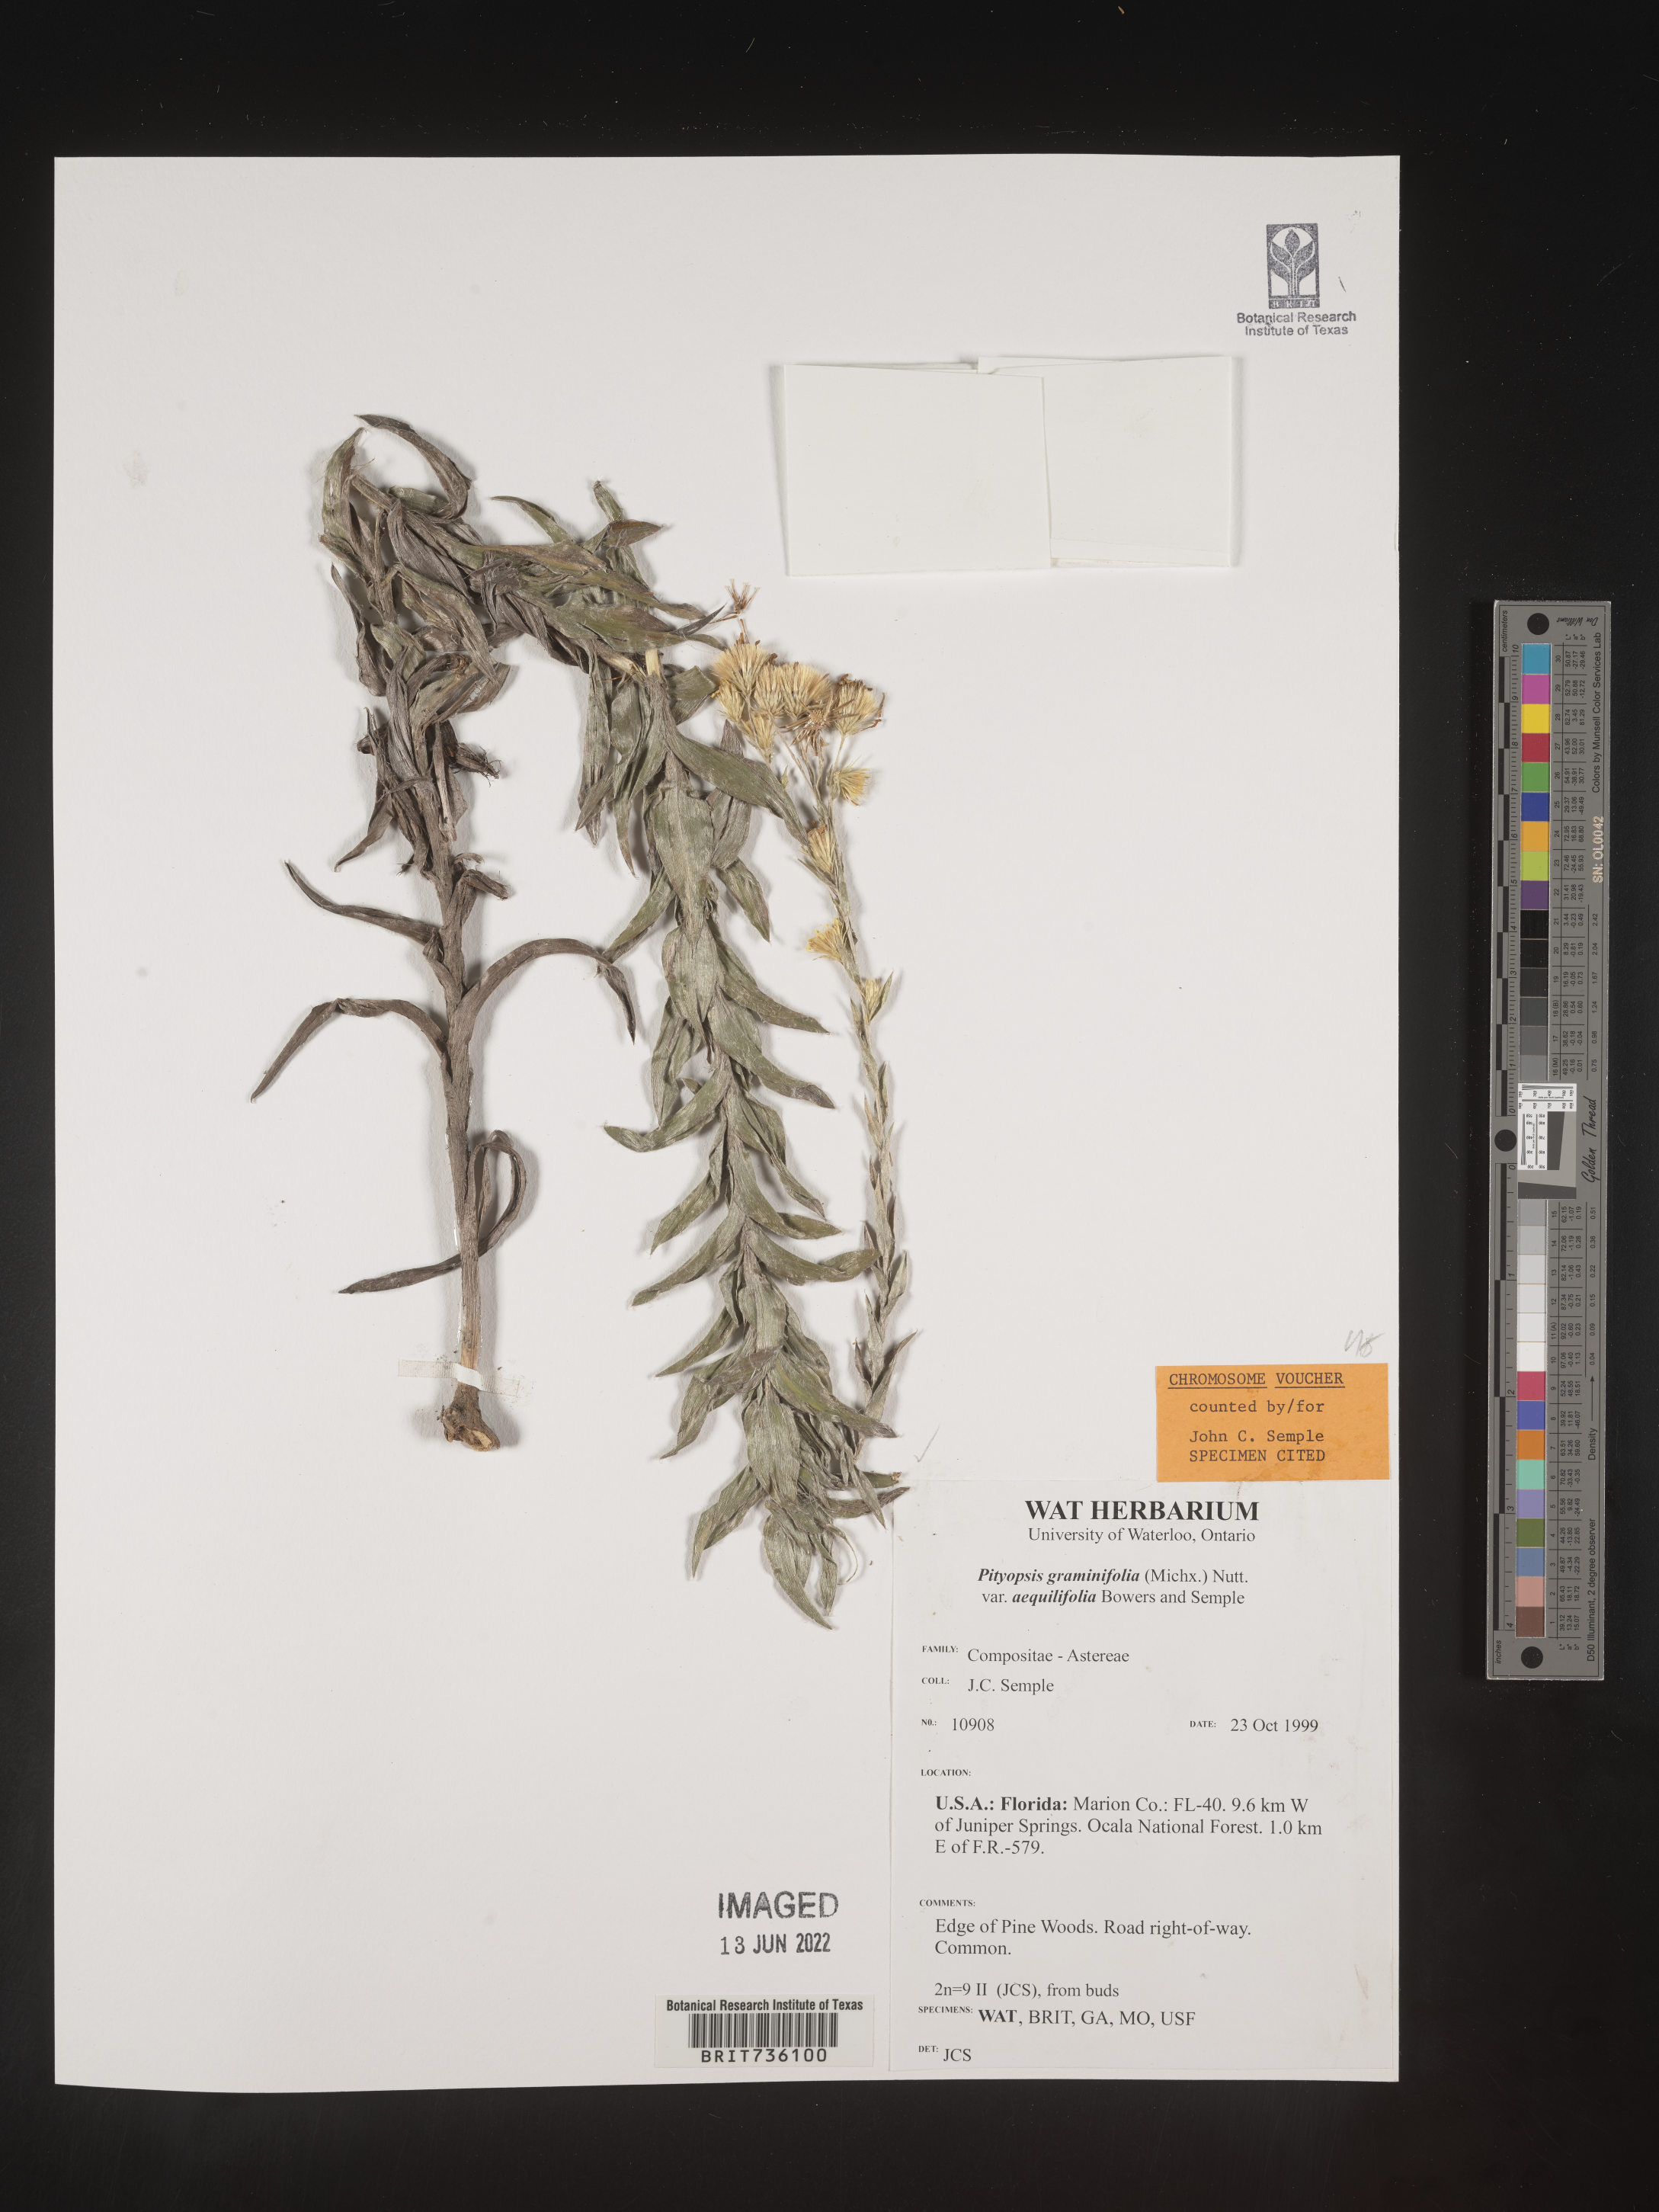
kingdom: Plantae
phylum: Tracheophyta
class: Magnoliopsida
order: Asterales
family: Asteraceae
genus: Pityopsis
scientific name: Pityopsis aequilifolia
